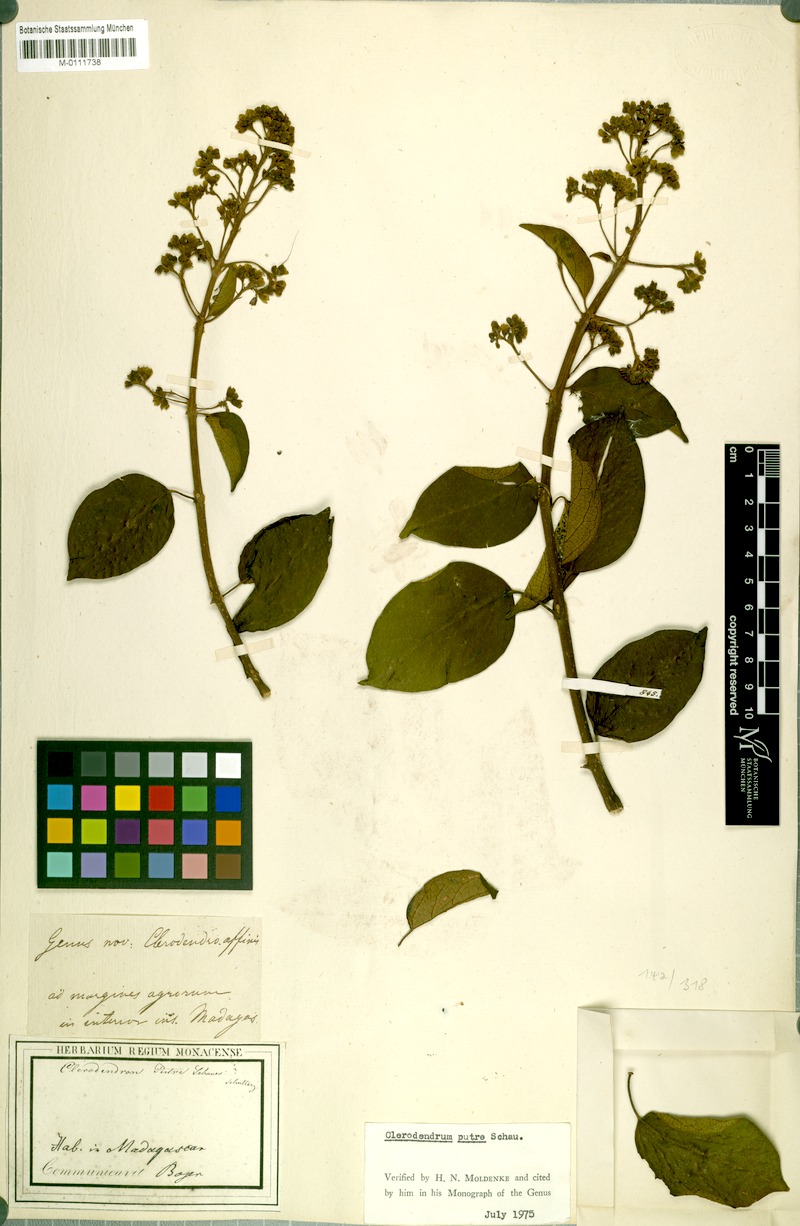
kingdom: Plantae
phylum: Tracheophyta
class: Magnoliopsida
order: Lamiales
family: Lamiaceae
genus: Clerodendrum
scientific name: Clerodendrum putre
